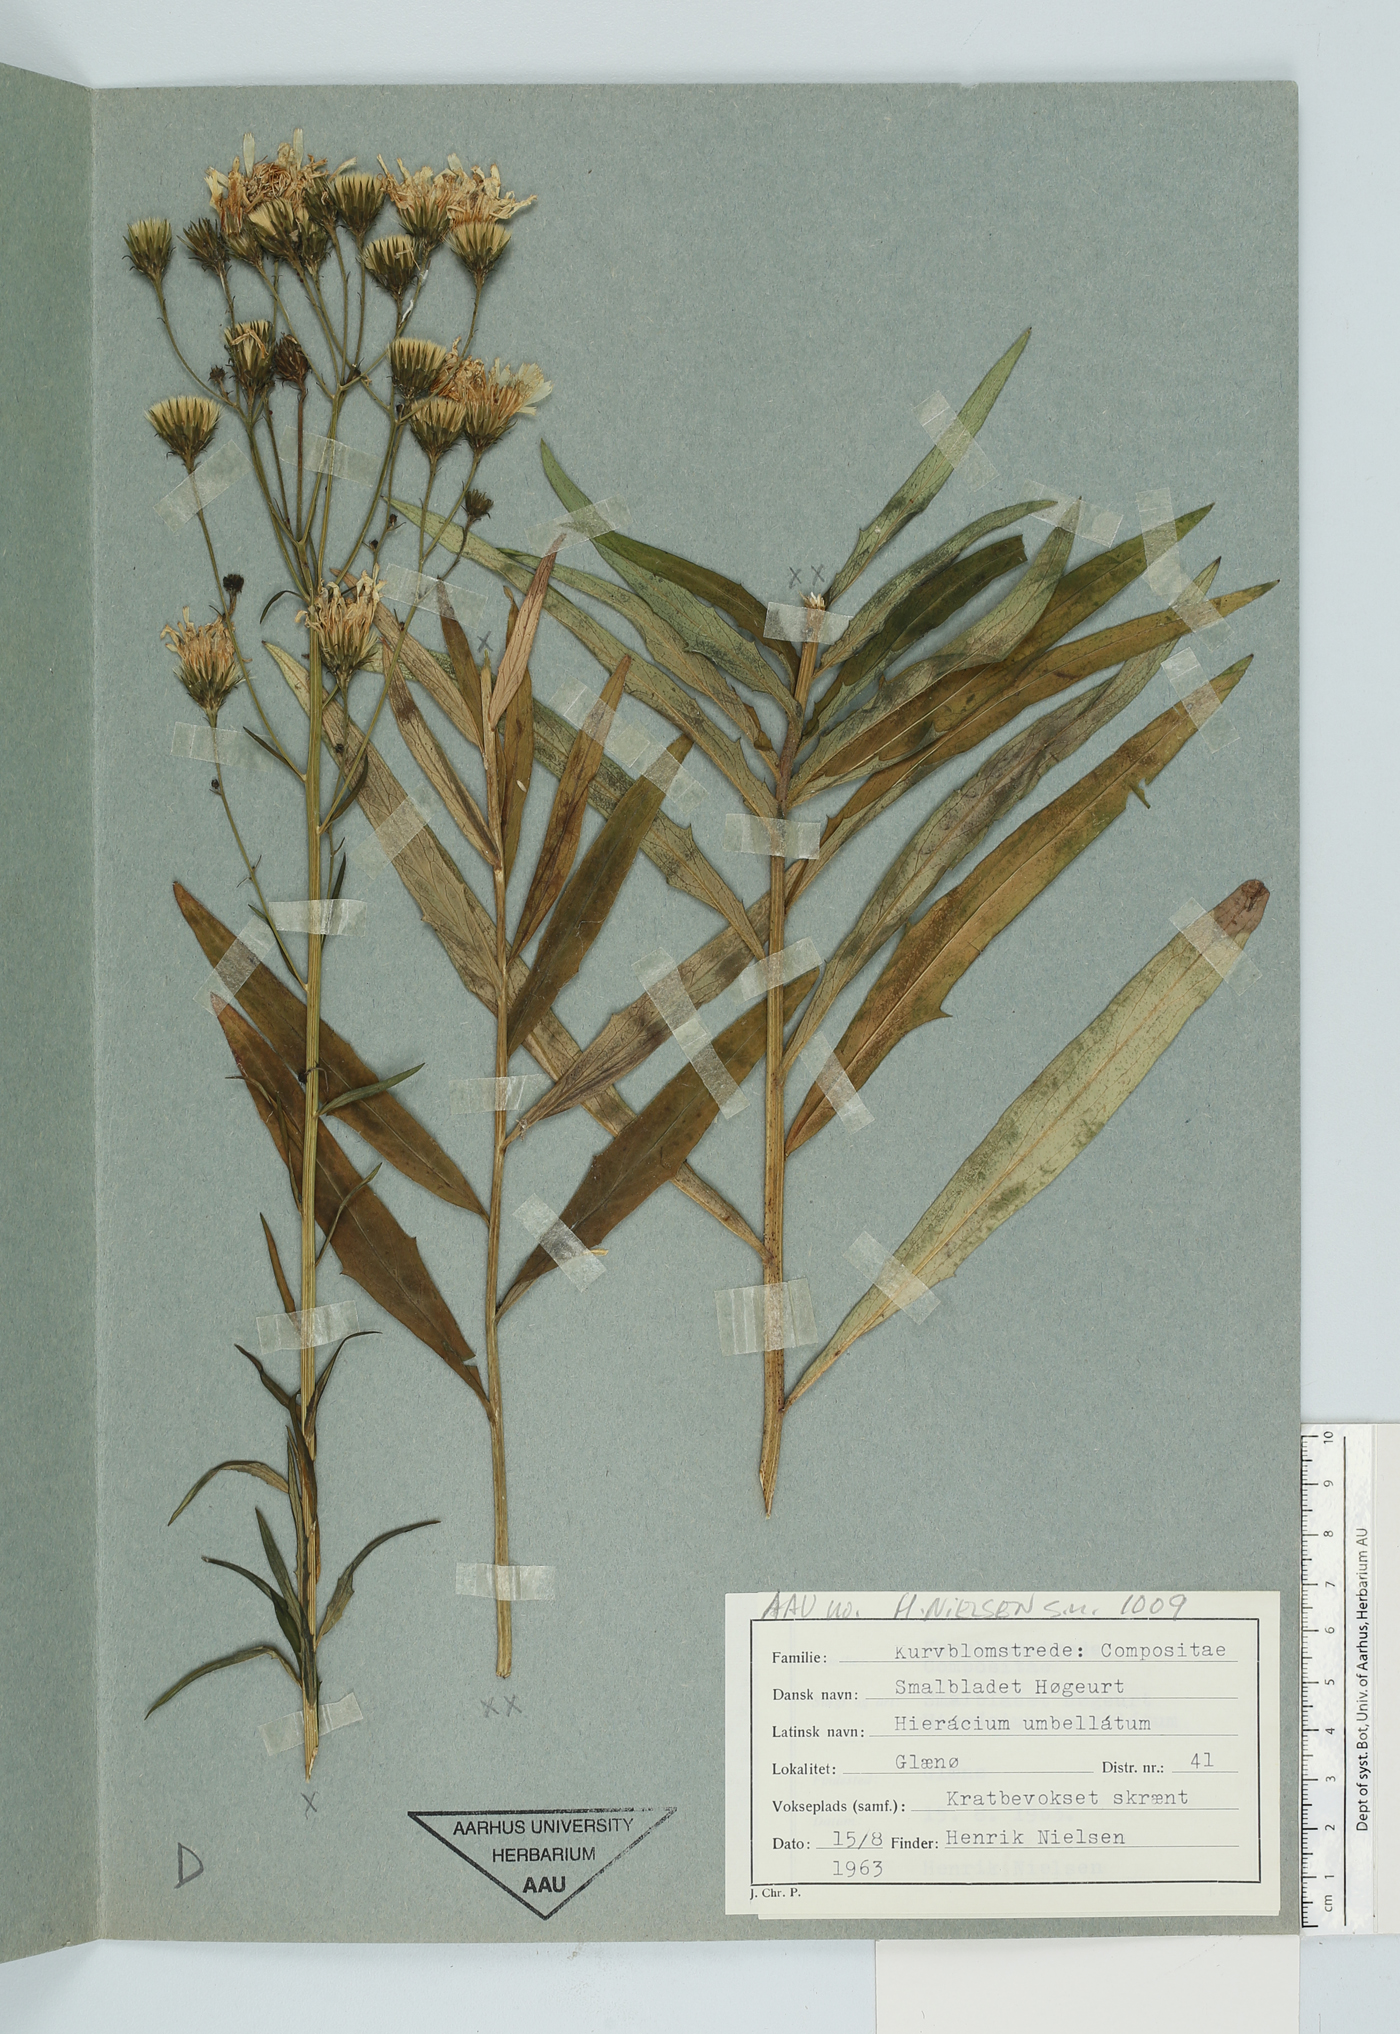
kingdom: Plantae
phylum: Tracheophyta
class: Magnoliopsida
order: Asterales
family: Asteraceae
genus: Hieracium
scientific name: Hieracium umbellatum
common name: Northern hawkweed
